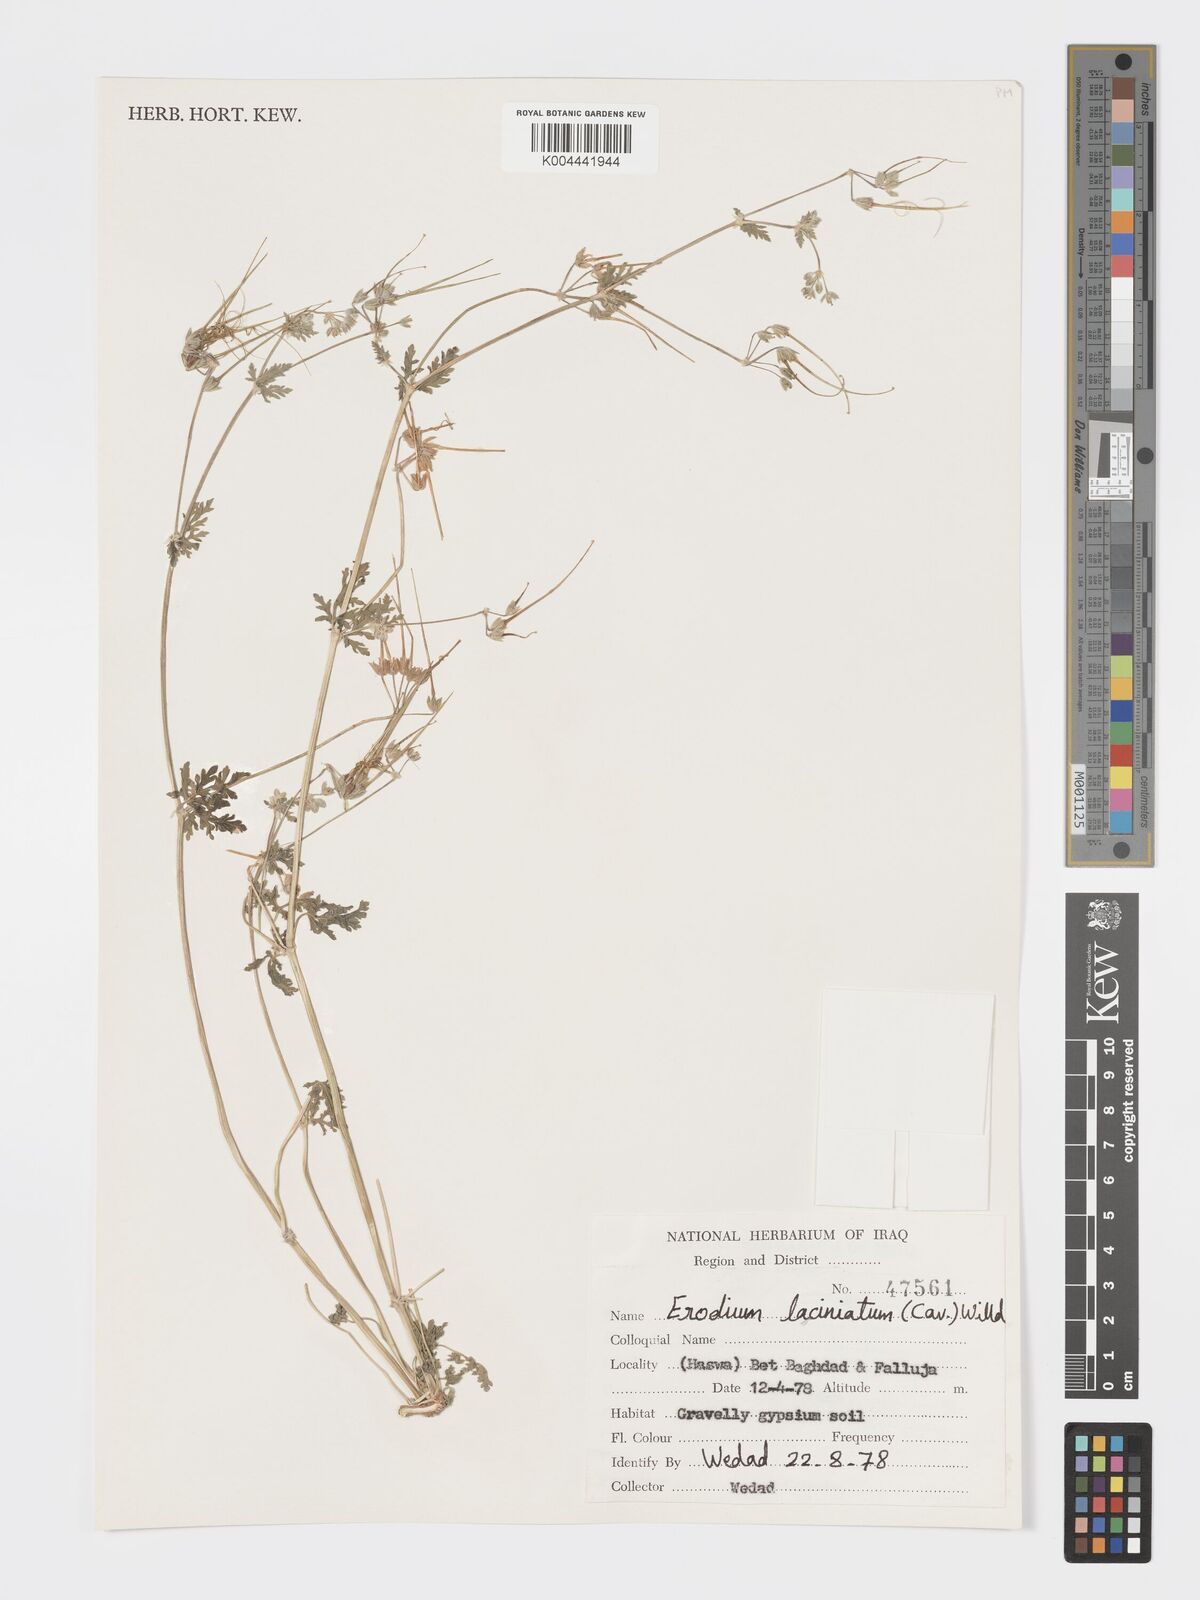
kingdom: Plantae
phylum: Tracheophyta
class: Magnoliopsida
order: Geraniales
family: Geraniaceae
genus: Erodium
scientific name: Erodium laciniatum
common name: Cutleaf stork's bill
